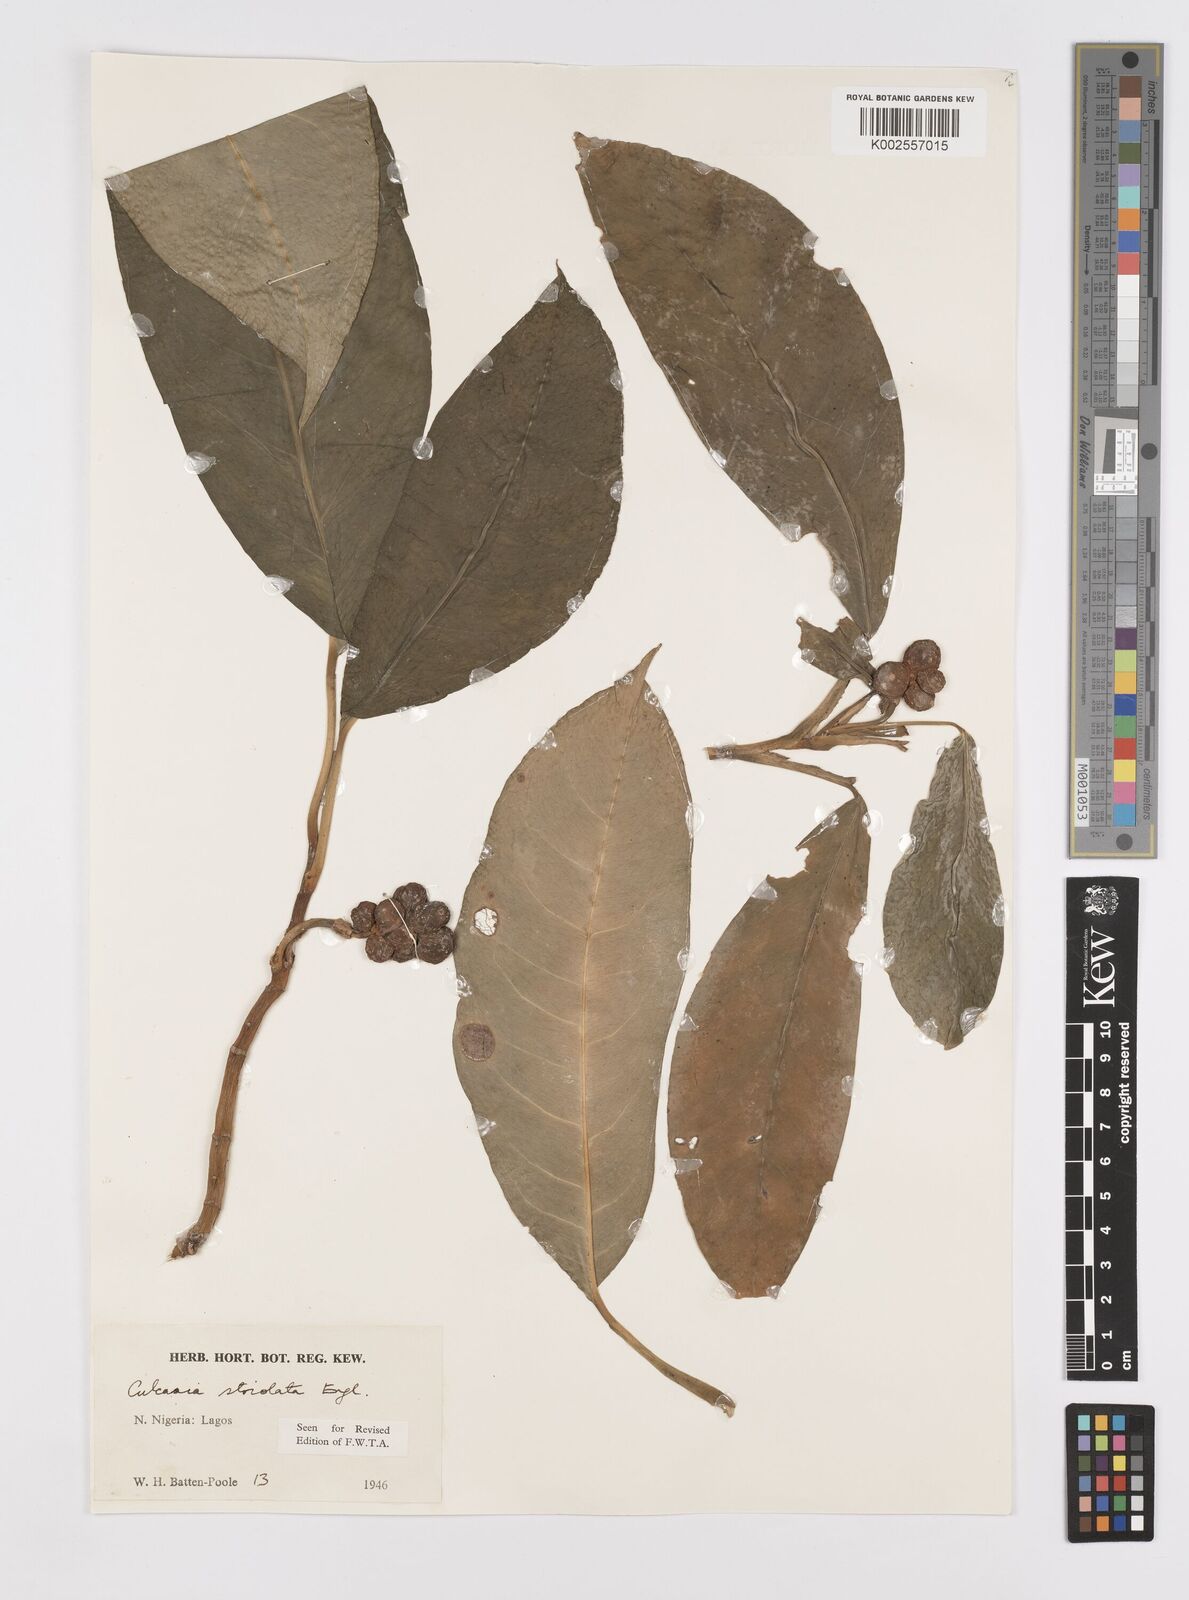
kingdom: Plantae
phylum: Tracheophyta
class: Liliopsida
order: Alismatales
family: Araceae
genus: Culcasia
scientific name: Culcasia striolata
